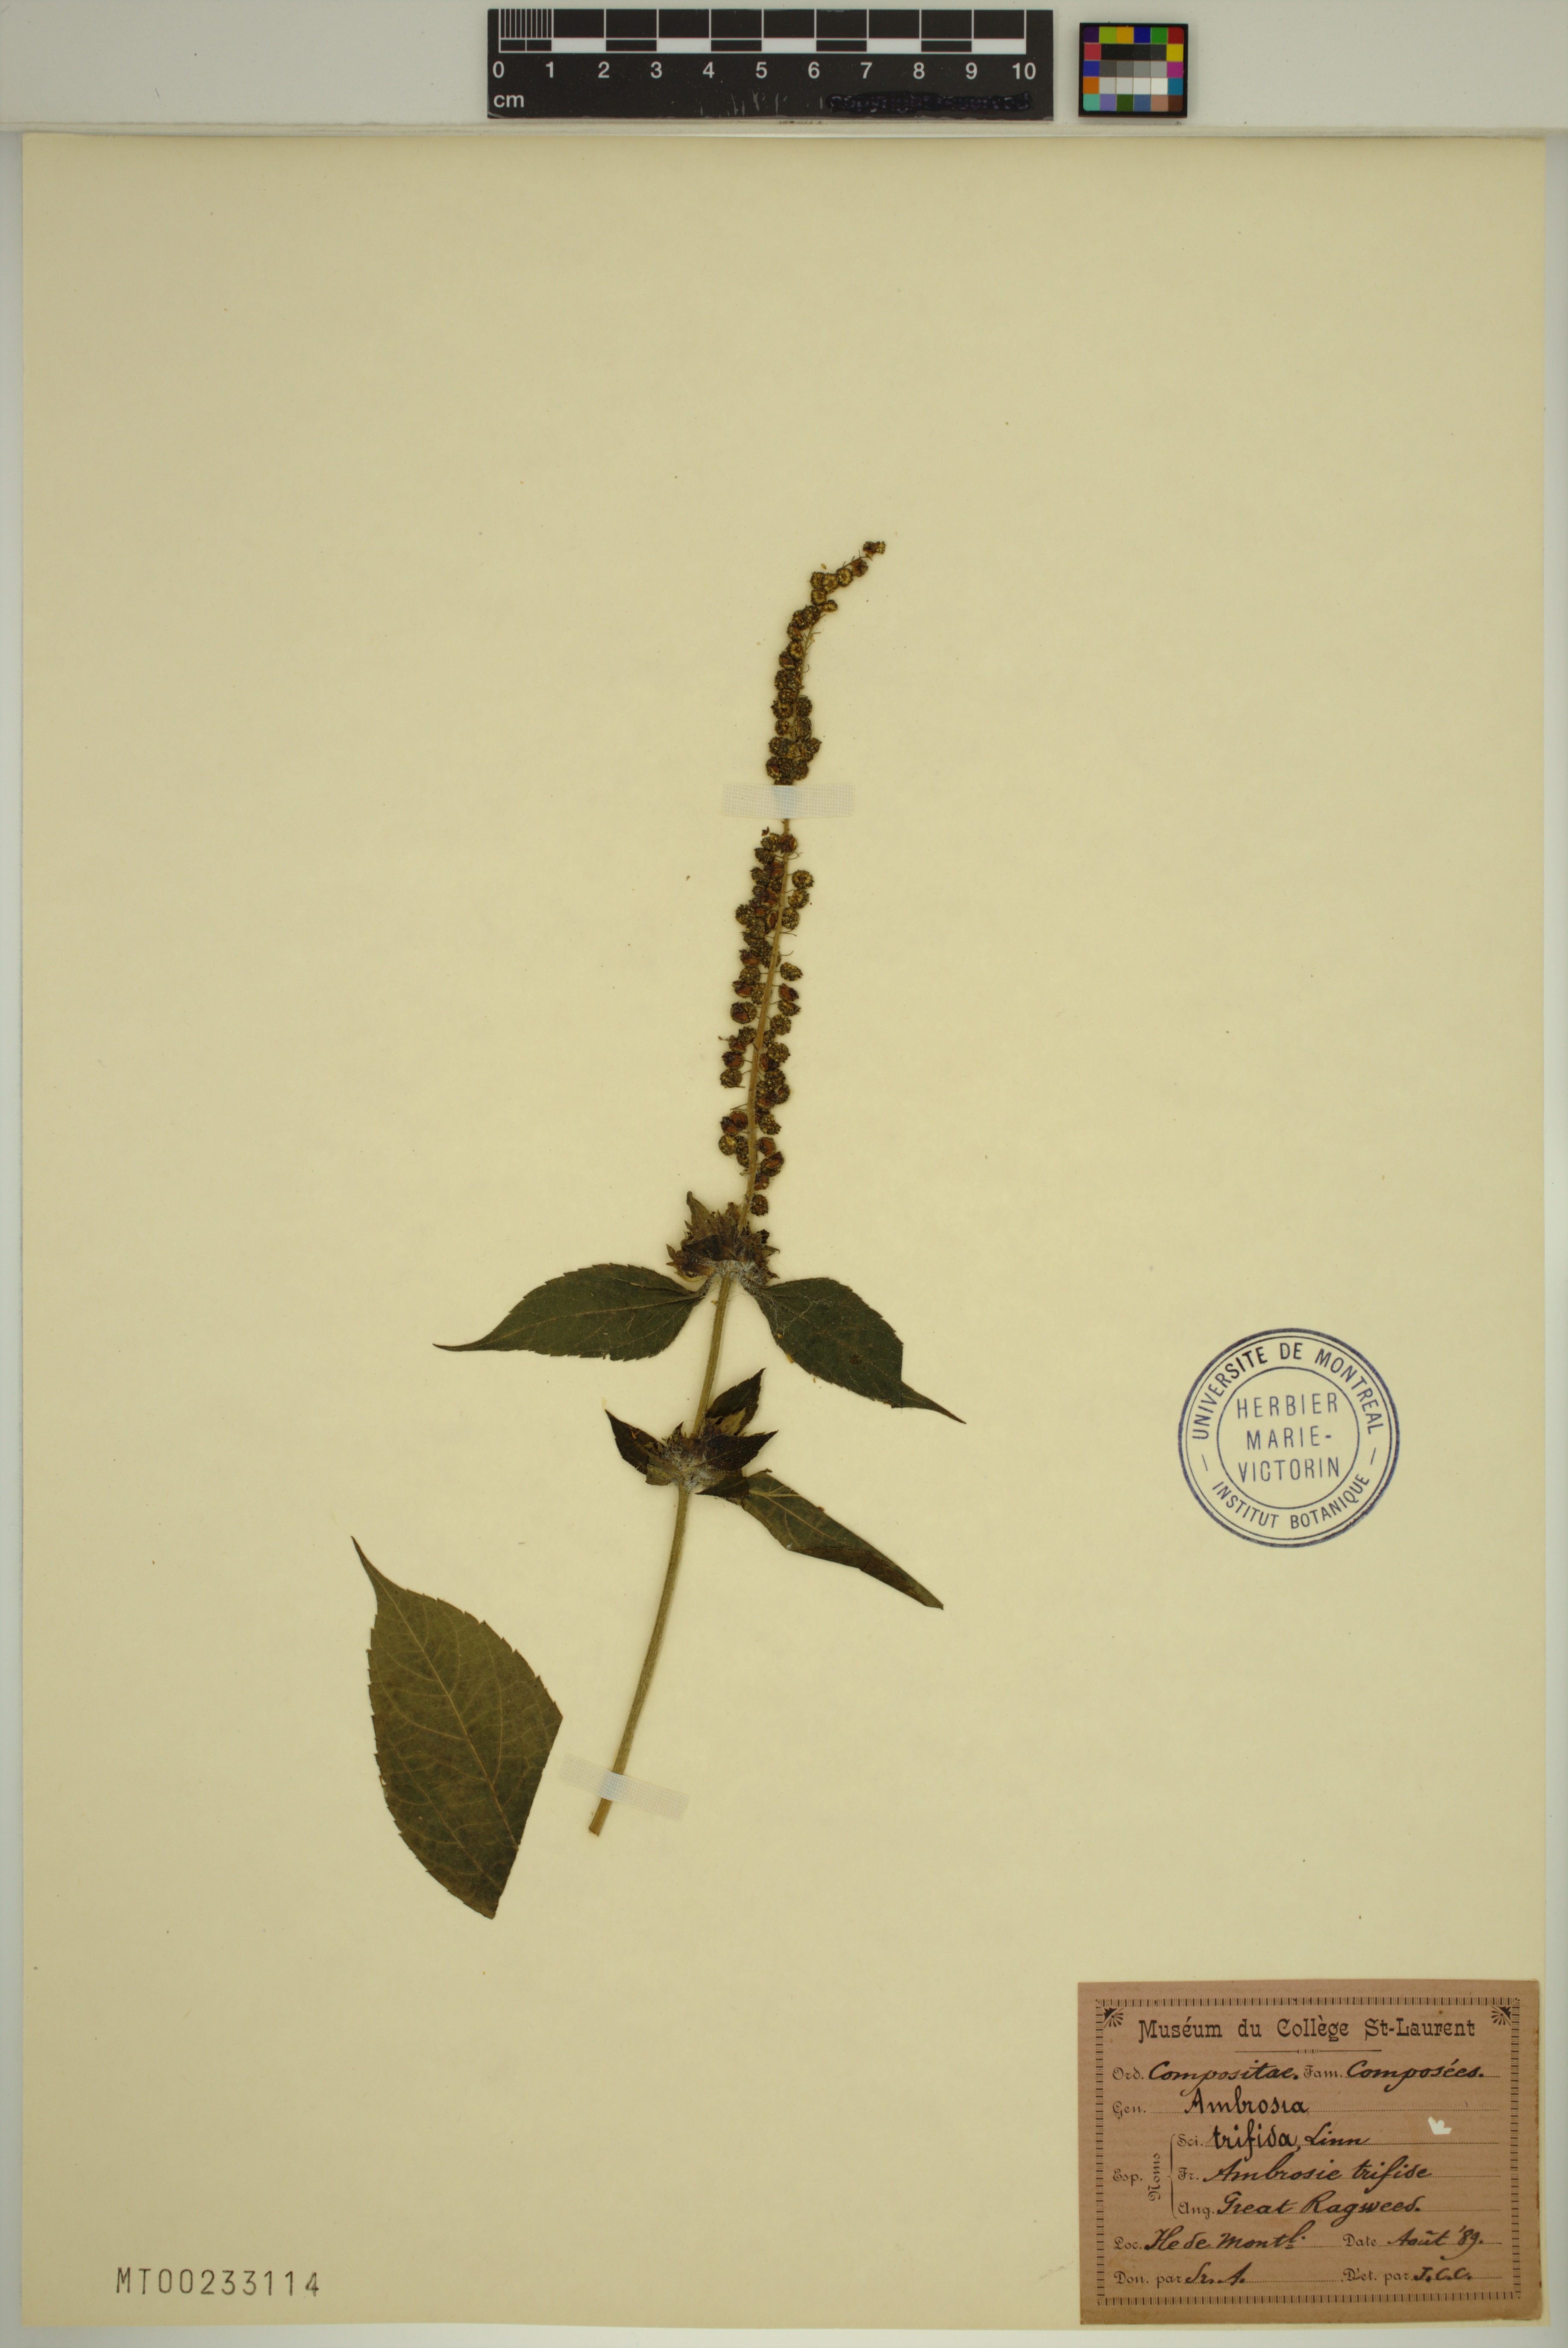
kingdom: Plantae
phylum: Tracheophyta
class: Magnoliopsida
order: Asterales
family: Asteraceae
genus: Ambrosia
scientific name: Ambrosia trifida
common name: Giant ragweed
